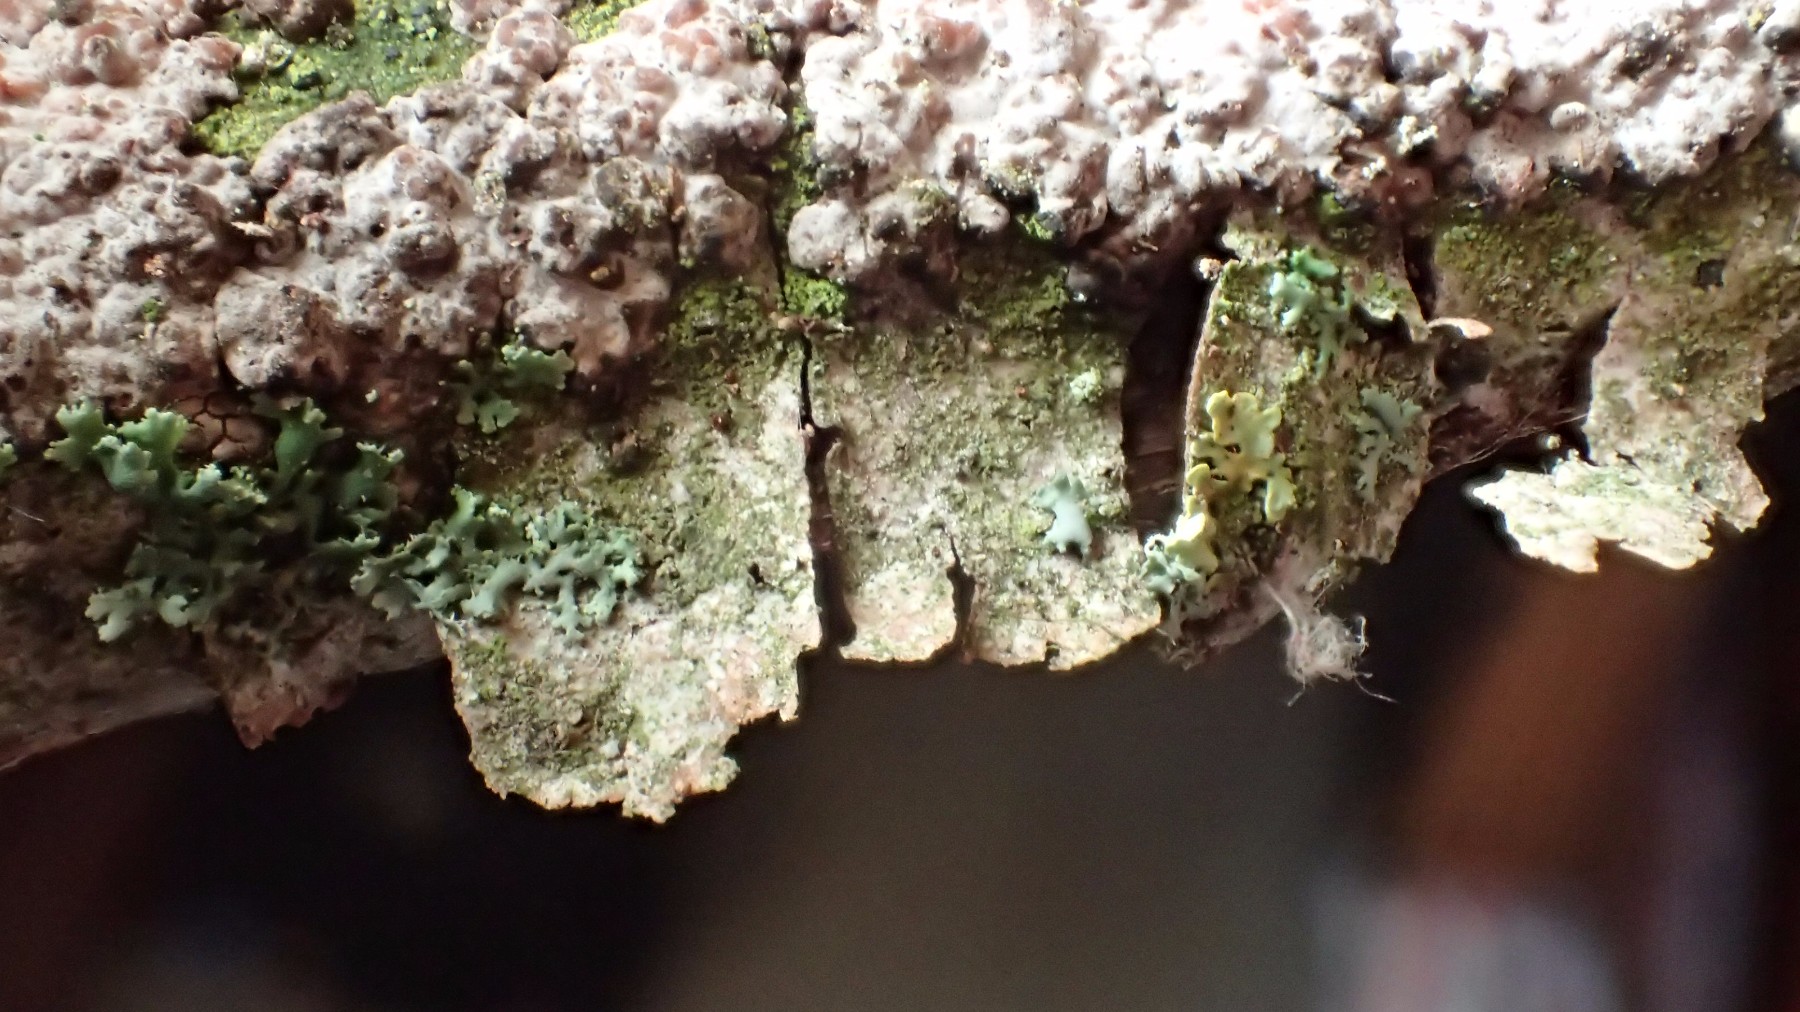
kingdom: Fungi
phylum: Basidiomycota
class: Agaricomycetes
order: Russulales
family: Peniophoraceae
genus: Peniophora
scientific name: Peniophora polygonia
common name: polygon-voksskind
